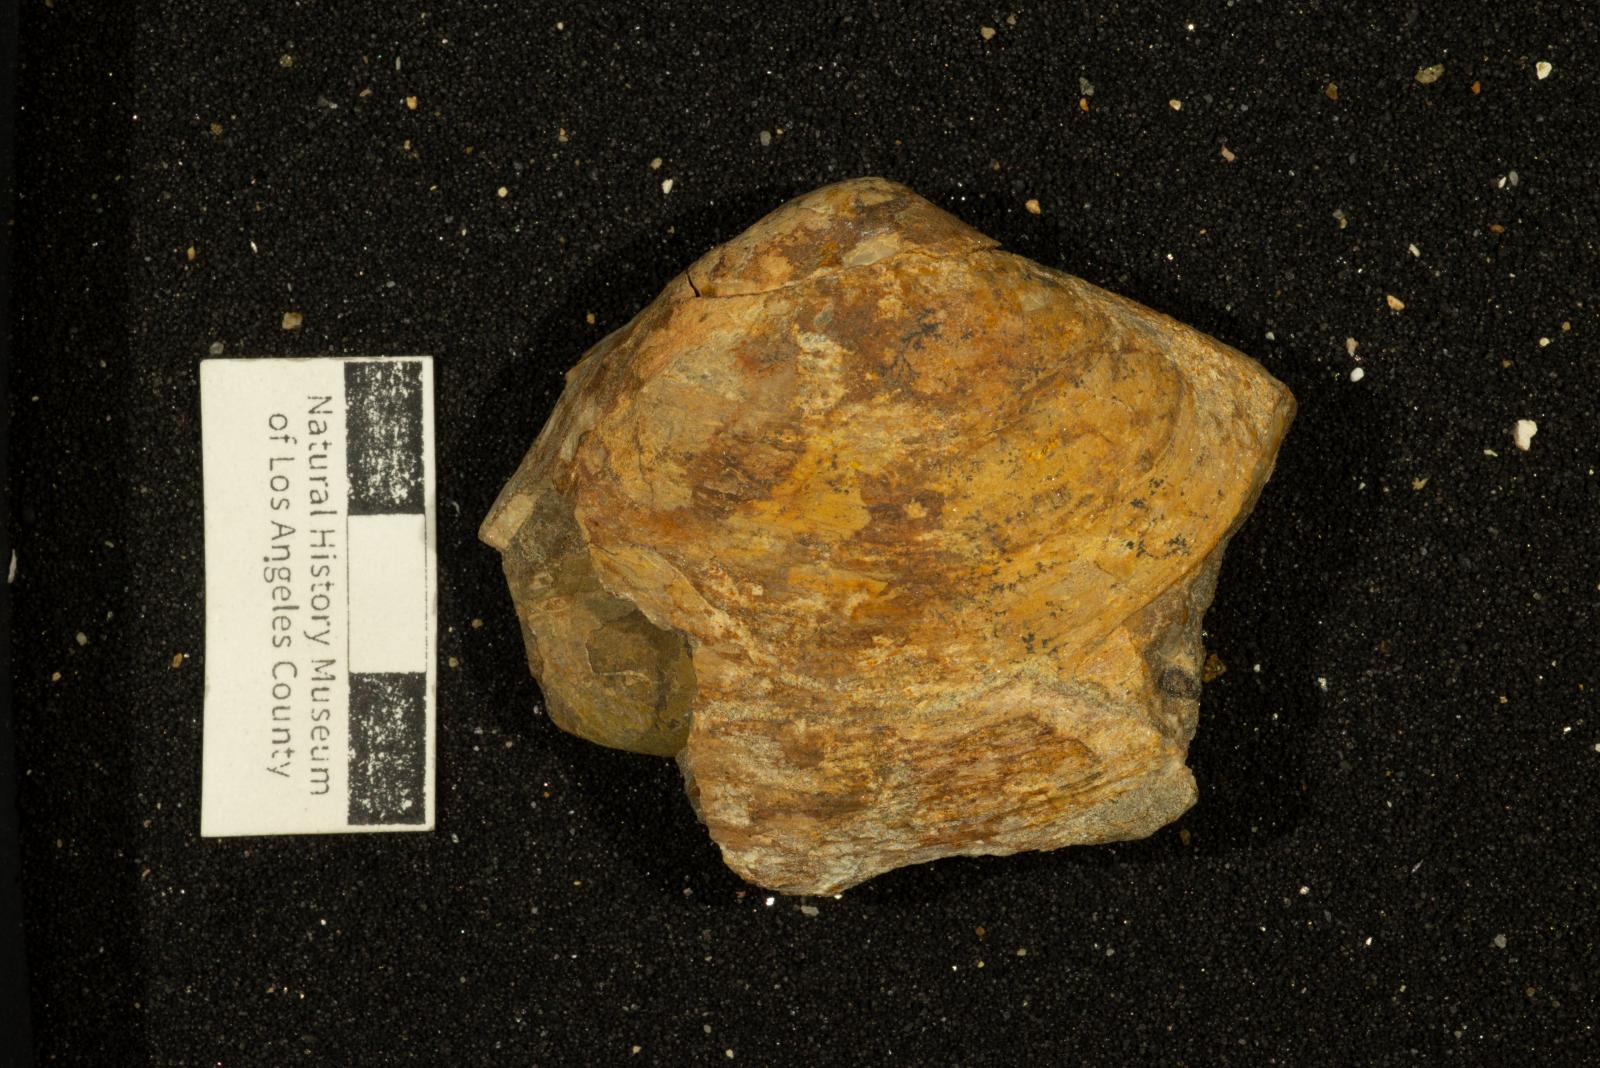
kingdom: Animalia
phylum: Mollusca
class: Bivalvia
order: Venerida
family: Mactridae
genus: Cymbophora
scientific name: Cymbophora ashburnerii
